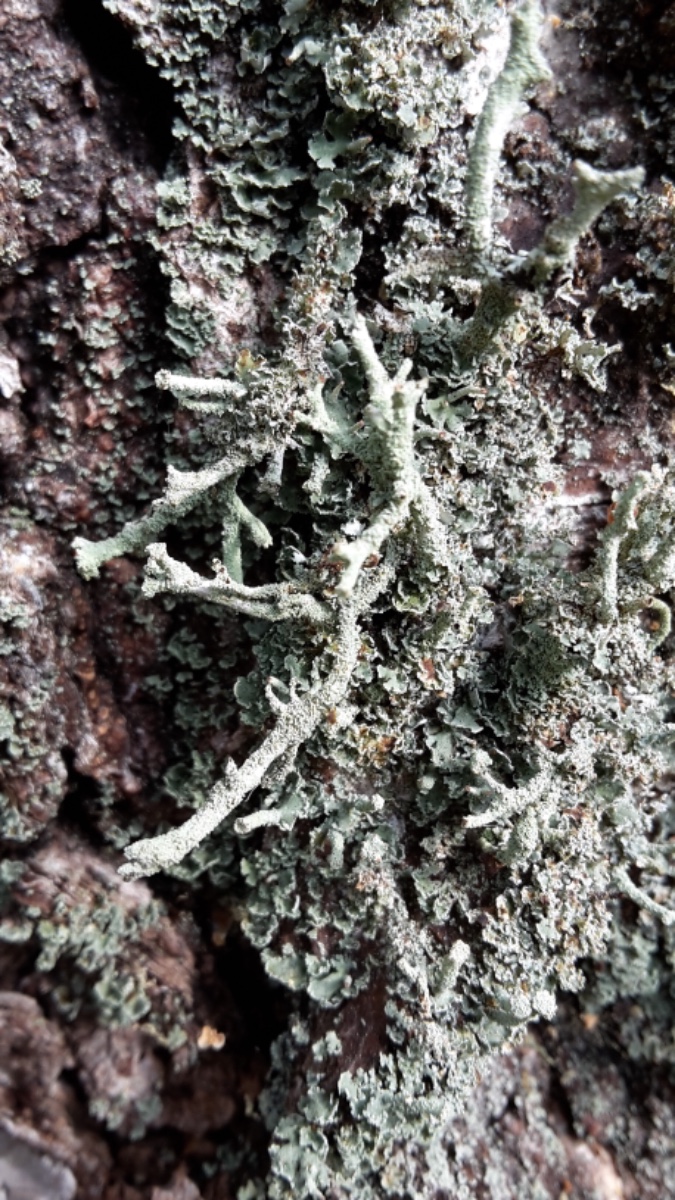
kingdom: Fungi
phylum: Ascomycota
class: Lecanoromycetes
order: Lecanorales
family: Cladoniaceae
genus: Cladonia
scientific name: Cladonia
